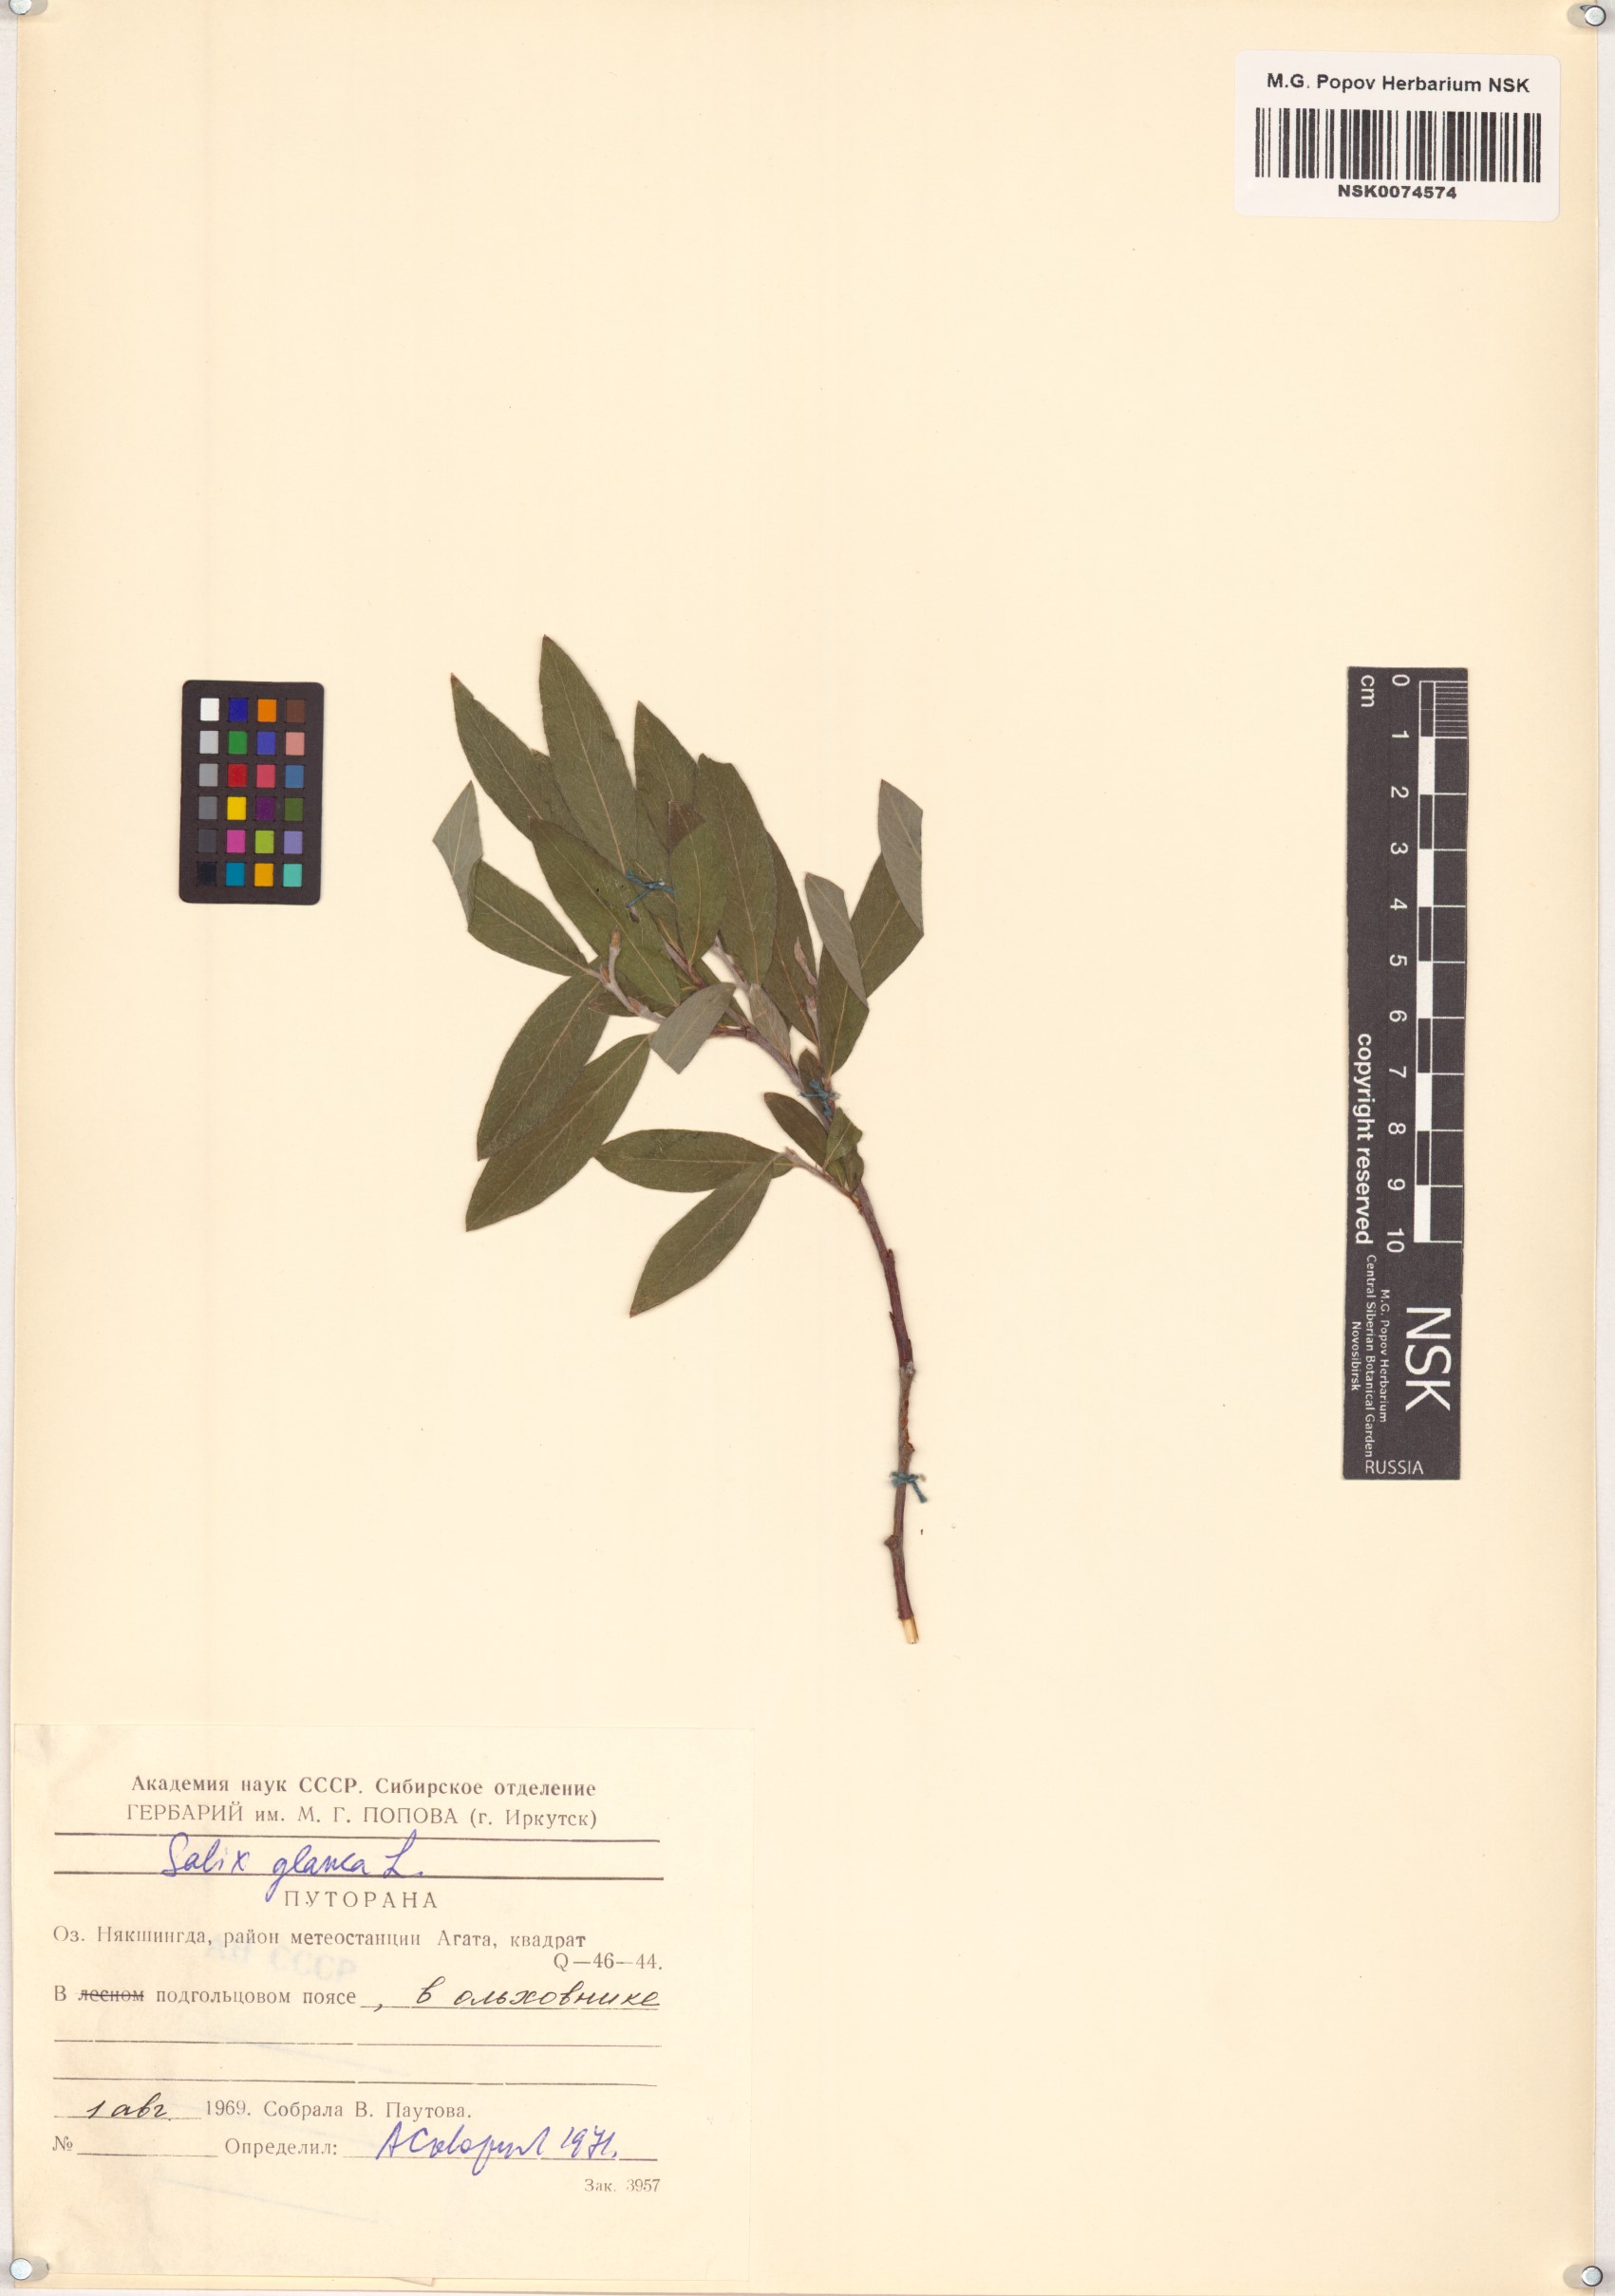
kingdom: Plantae
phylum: Tracheophyta
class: Magnoliopsida
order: Malpighiales
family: Salicaceae
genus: Salix
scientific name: Salix glauca
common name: Glaucous willow
